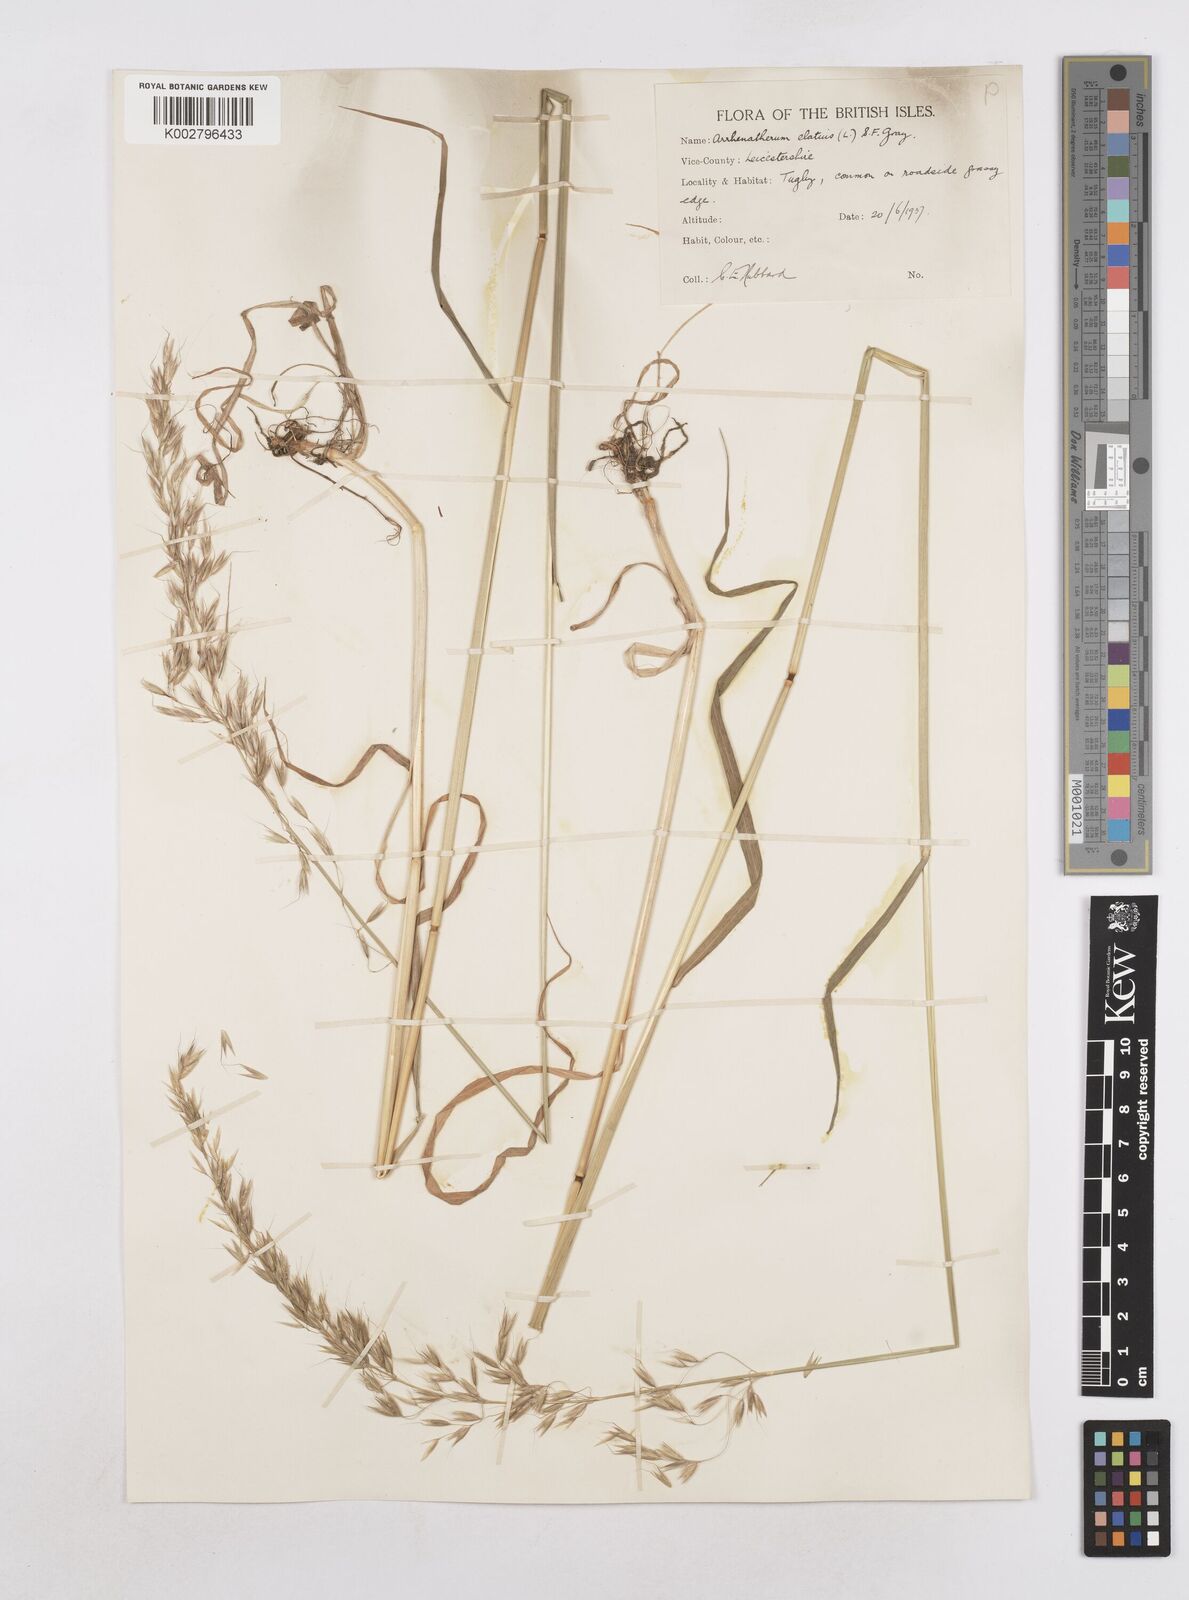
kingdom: Plantae
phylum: Tracheophyta
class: Liliopsida
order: Poales
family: Poaceae
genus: Arrhenatherum
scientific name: Arrhenatherum elatius
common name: Tall oatgrass
